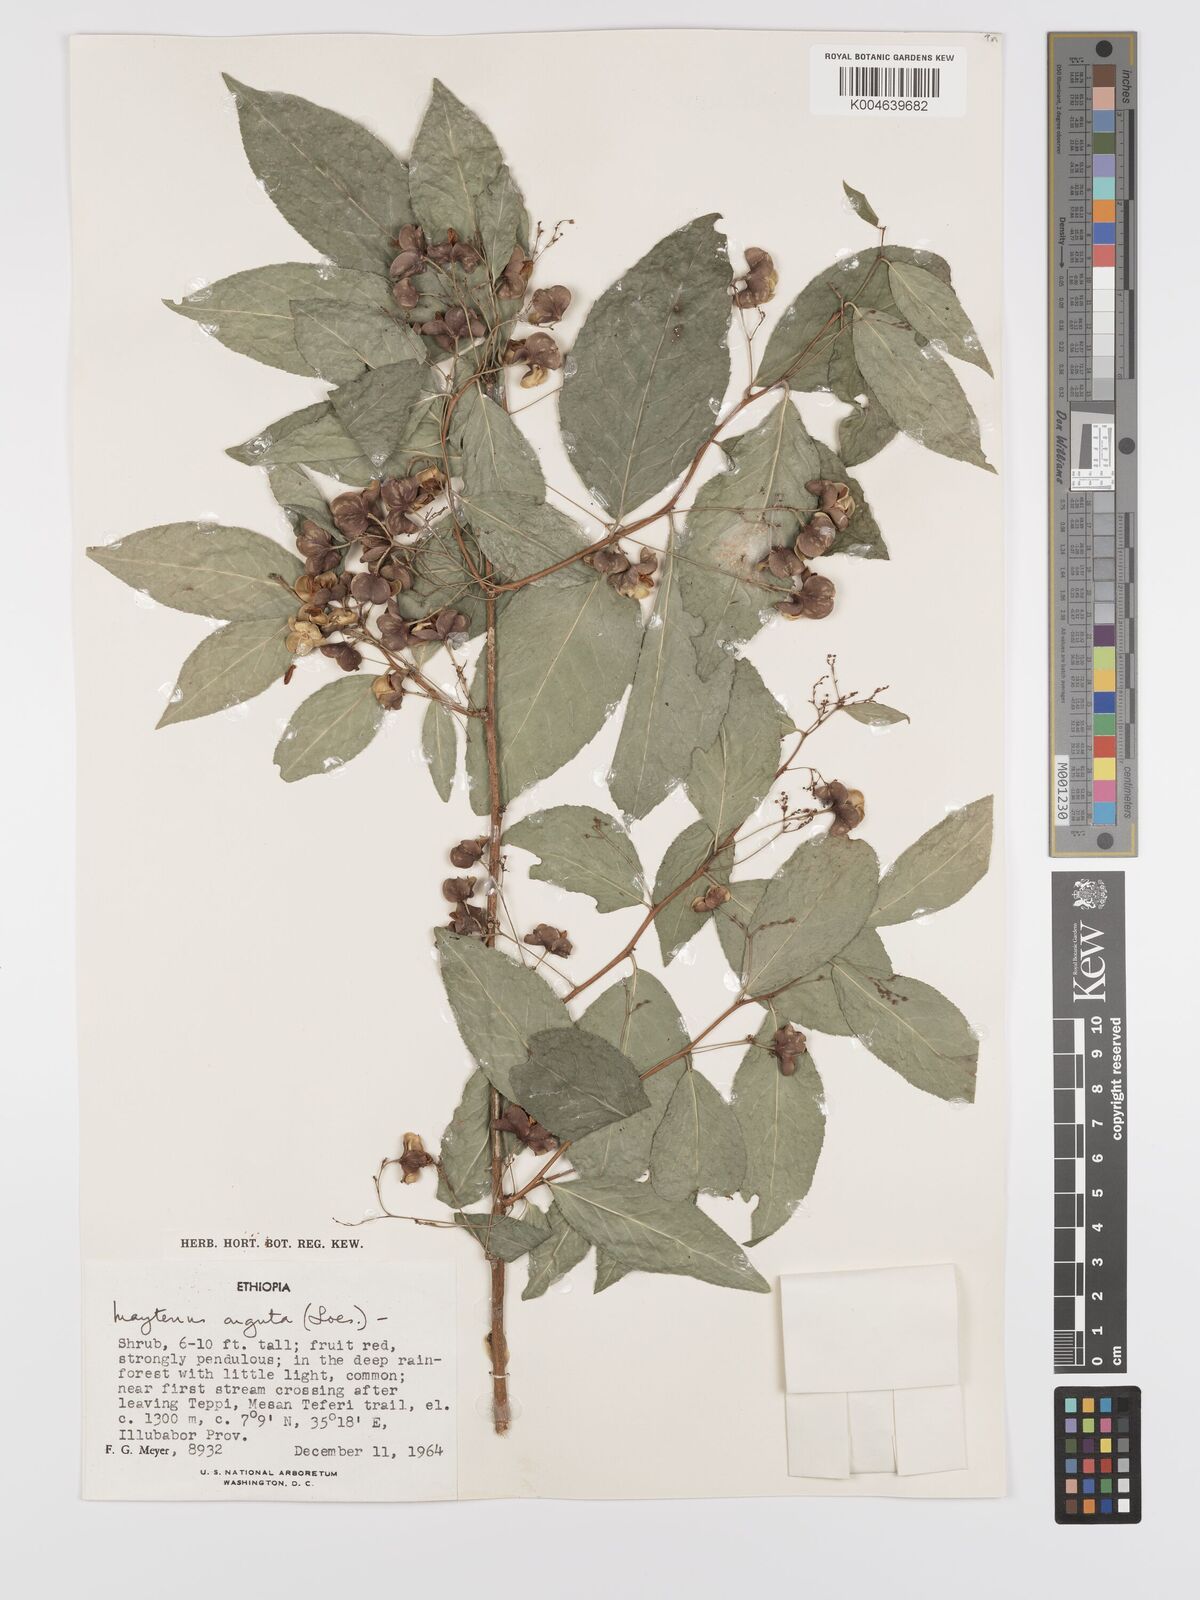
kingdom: Plantae
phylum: Tracheophyta
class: Magnoliopsida
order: Celastrales
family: Celastraceae
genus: Gymnosporia
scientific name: Gymnosporia gracilipes
